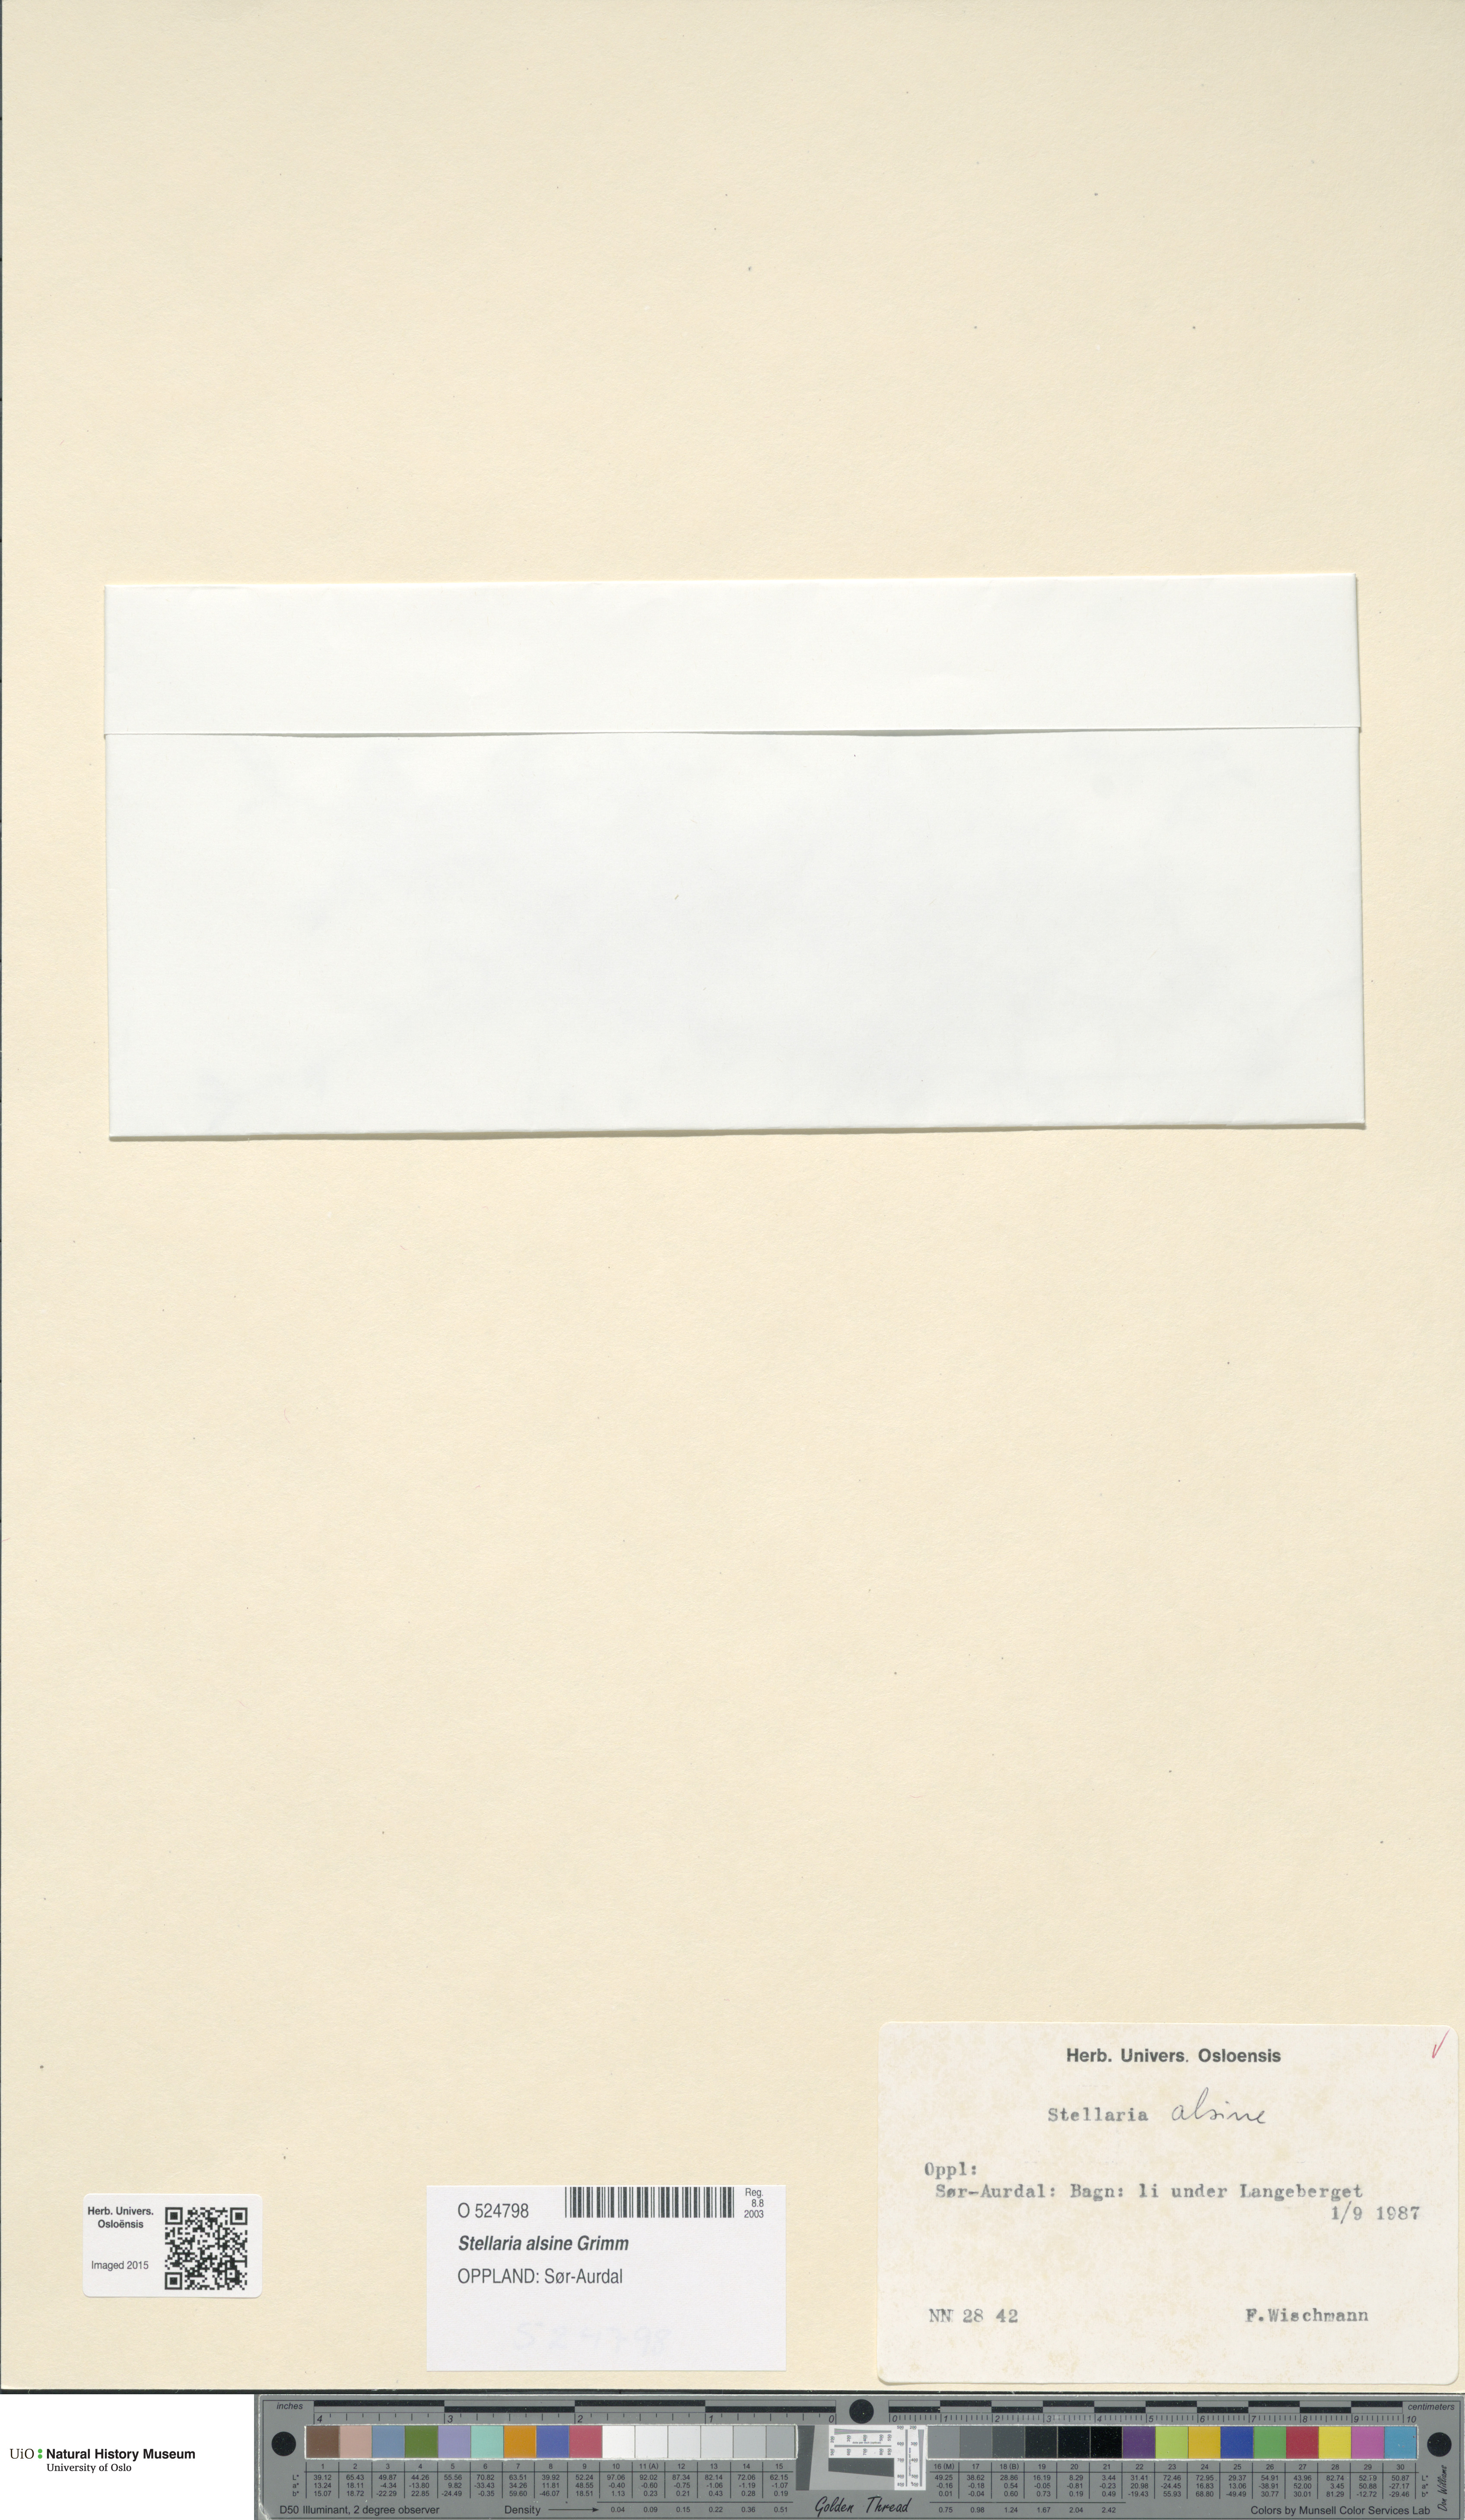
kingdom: Plantae
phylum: Tracheophyta
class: Magnoliopsida
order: Caryophyllales
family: Caryophyllaceae
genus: Stellaria
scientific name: Stellaria alsine
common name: Bog stitchwort
